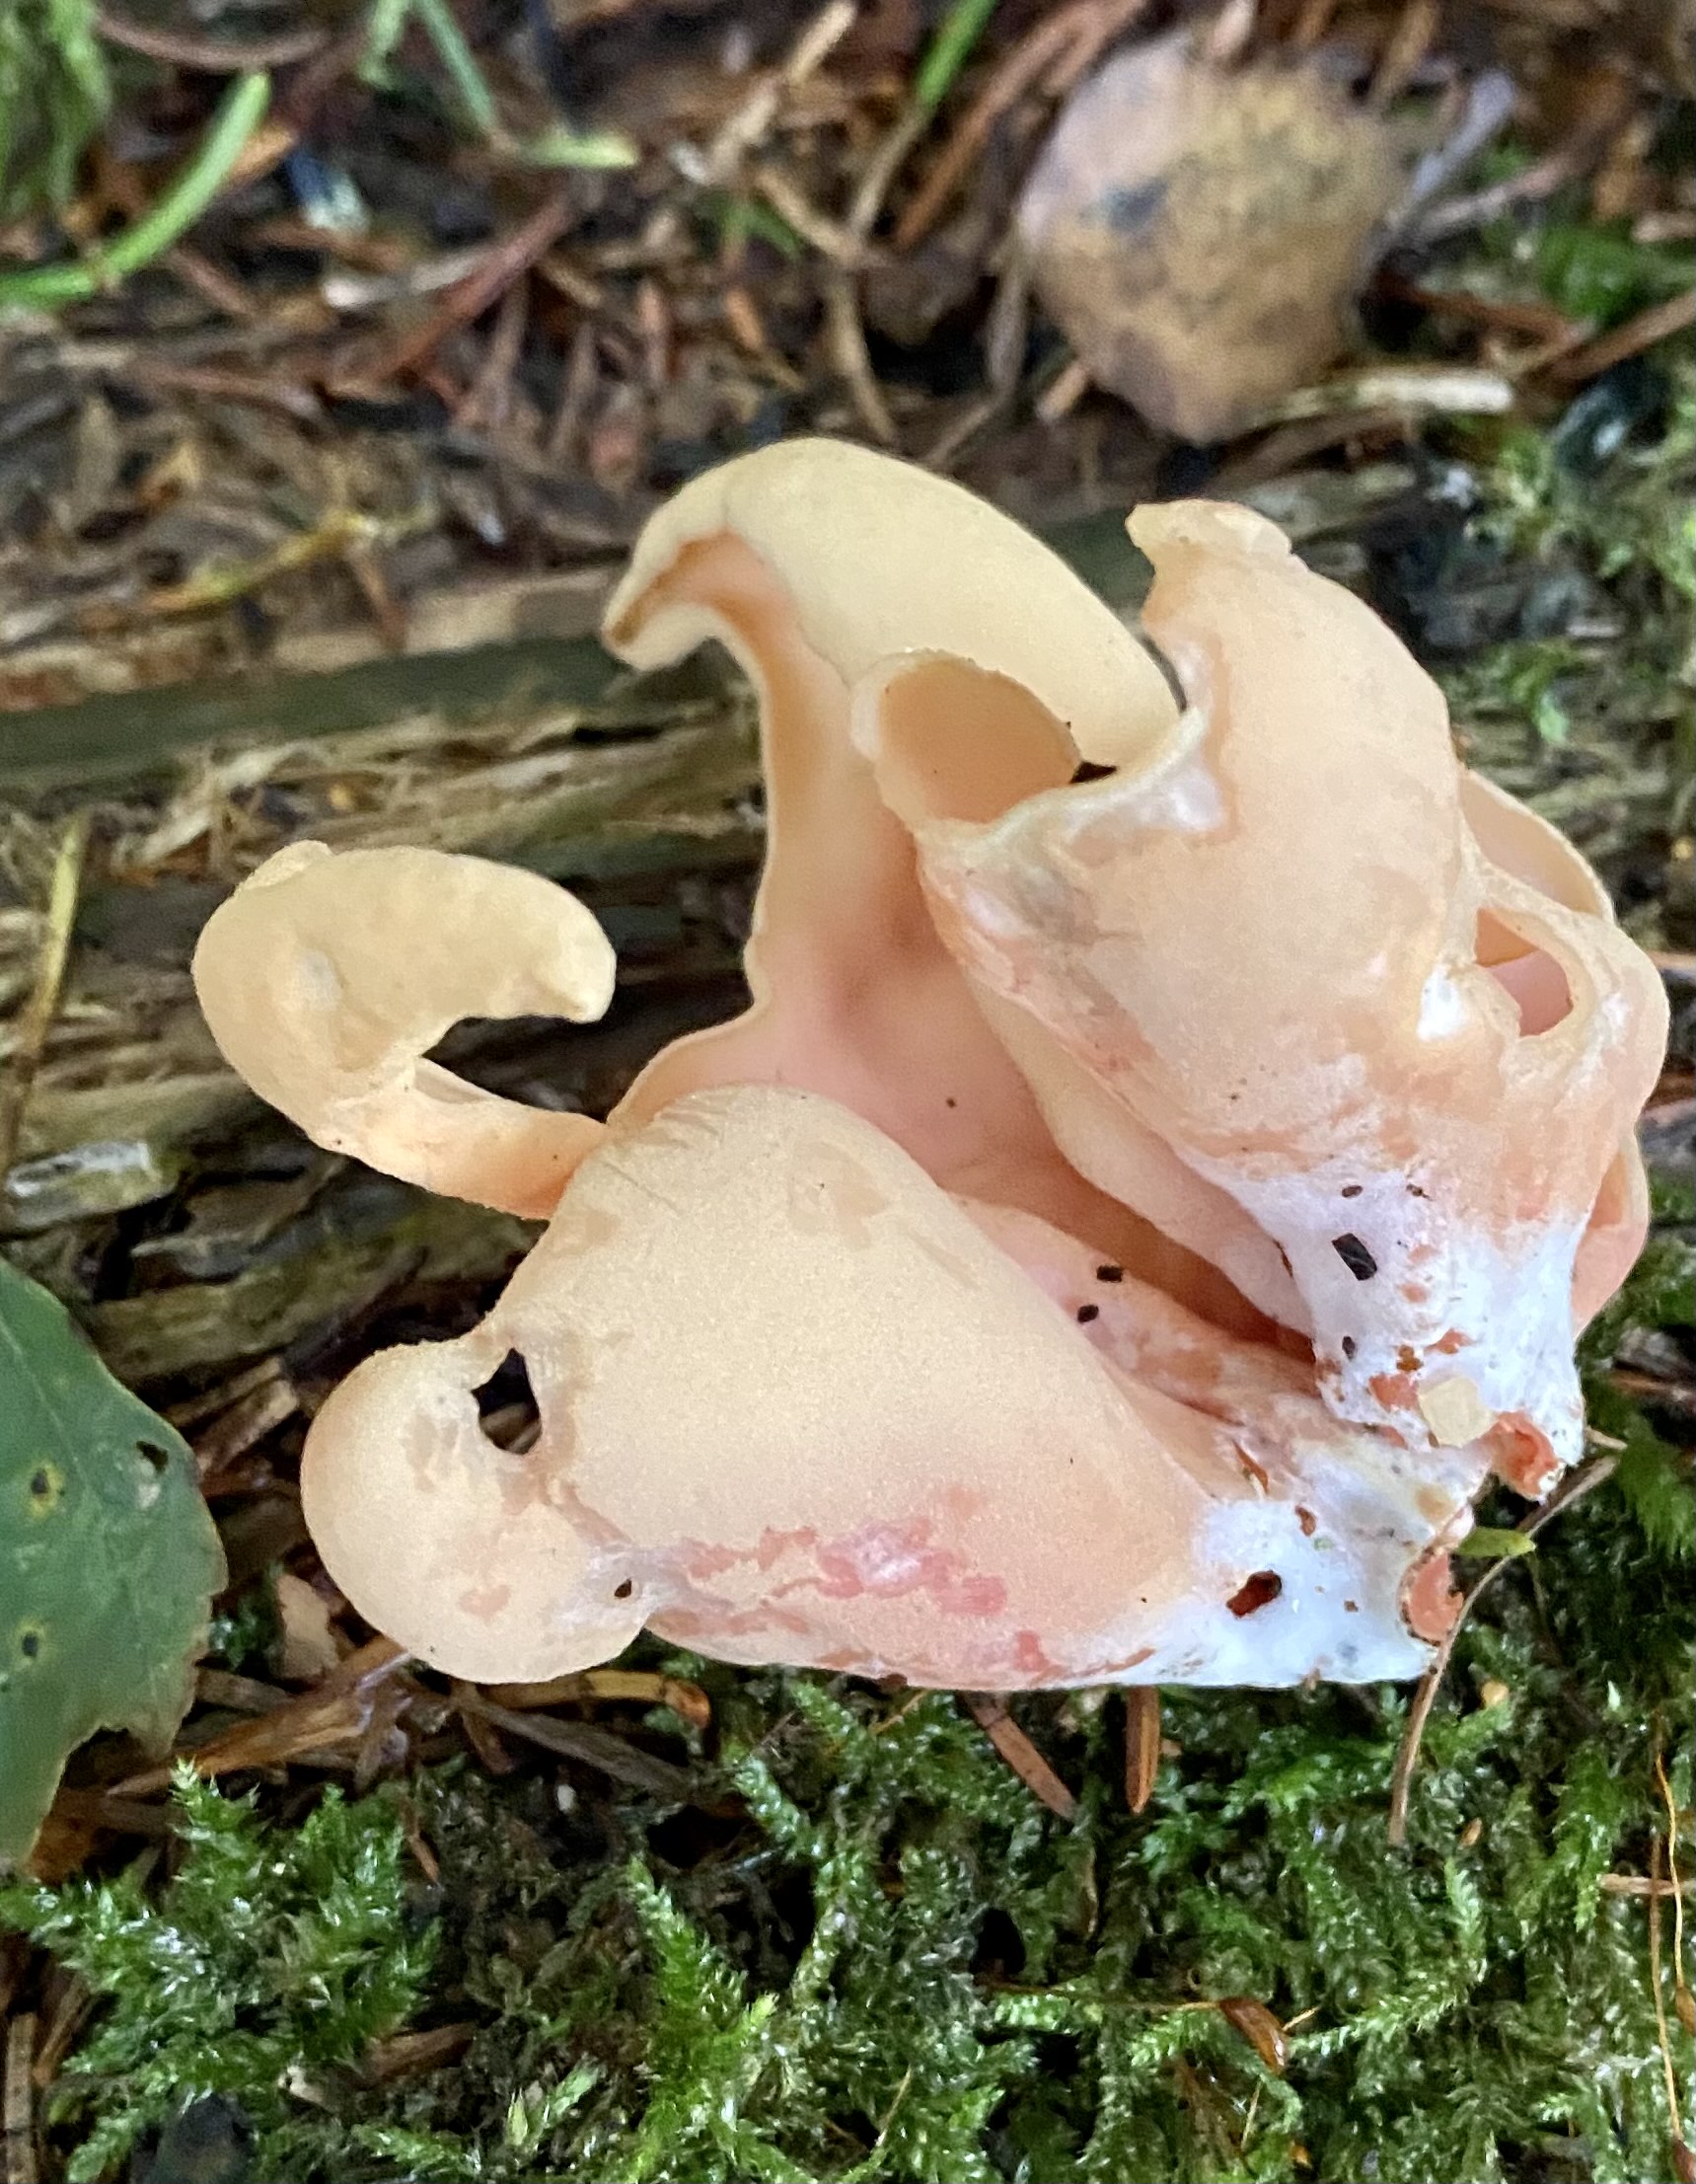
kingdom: Fungi
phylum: Ascomycota
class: Pezizomycetes
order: Pezizales
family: Otideaceae
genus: Otidea
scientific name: Otidea onotica
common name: æsel-ørebæger
